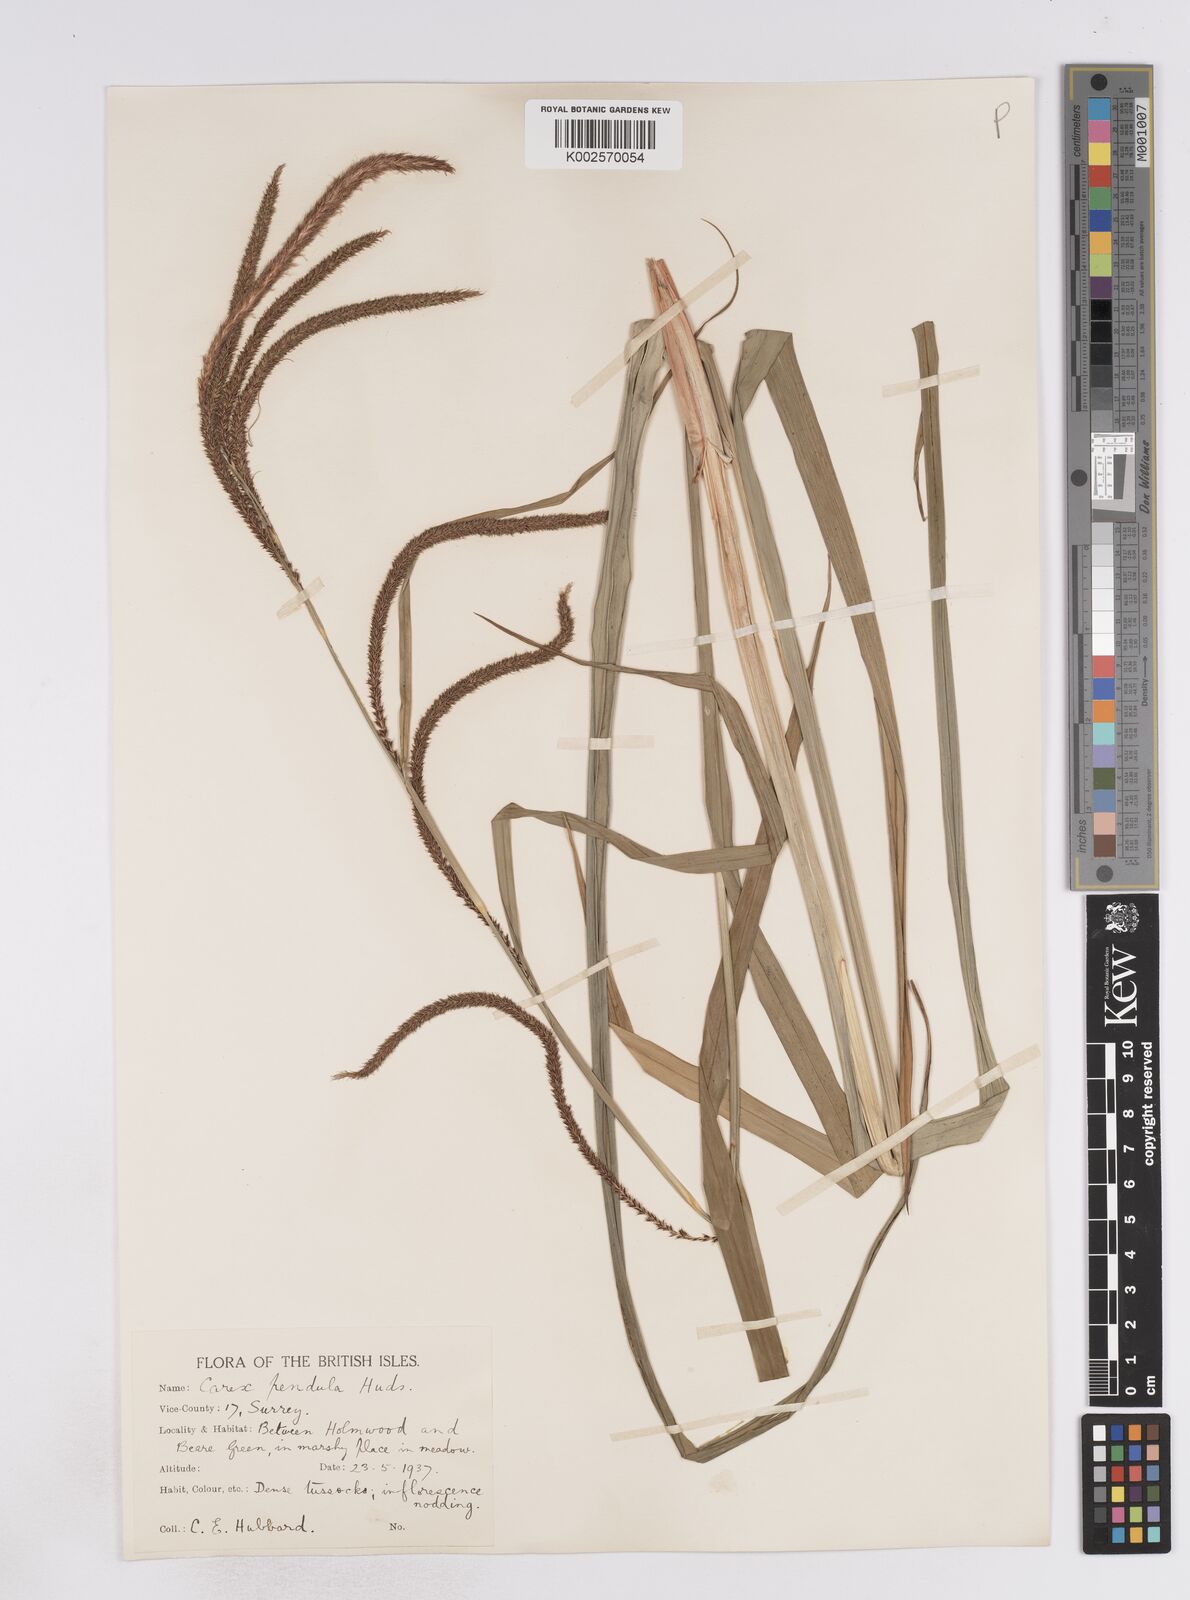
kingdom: Plantae
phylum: Tracheophyta
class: Liliopsida
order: Poales
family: Cyperaceae
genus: Carex
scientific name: Carex pendula
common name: Pendulous sedge
